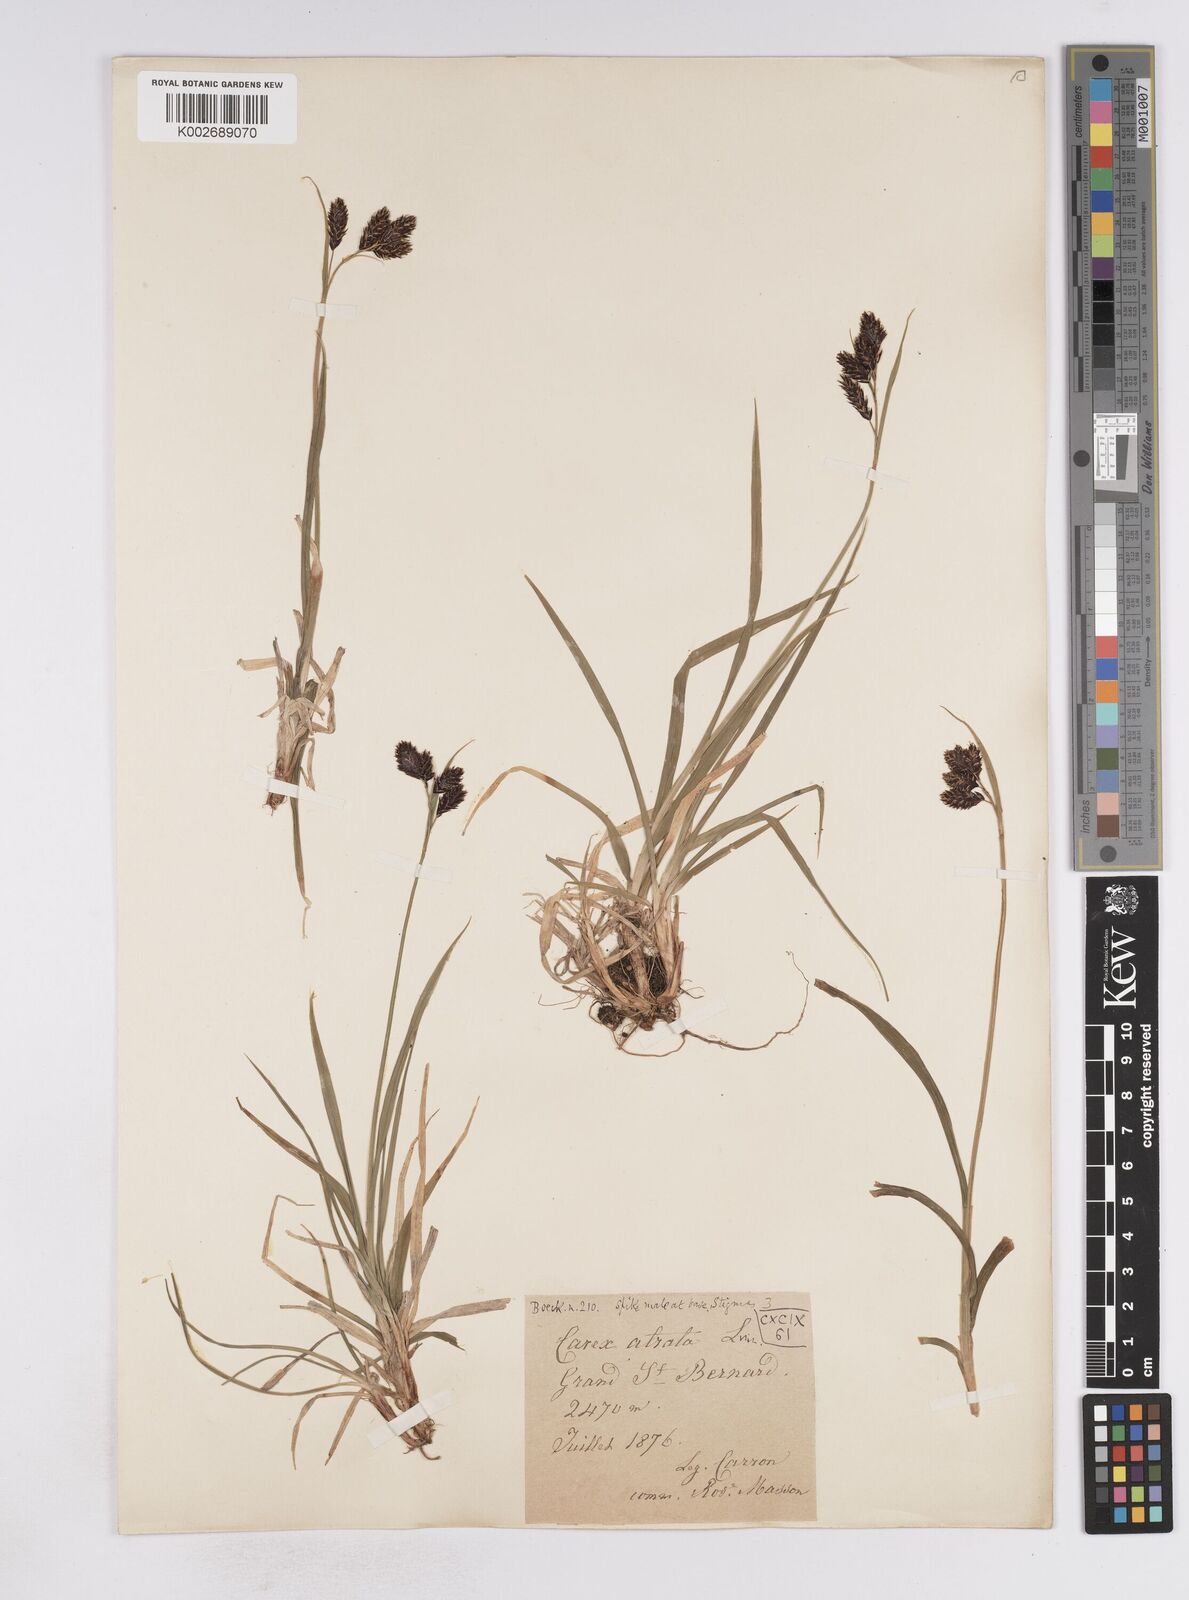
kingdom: Plantae
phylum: Tracheophyta
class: Liliopsida
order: Poales
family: Cyperaceae
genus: Carex
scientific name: Carex atrata
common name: Black alpine sedge
